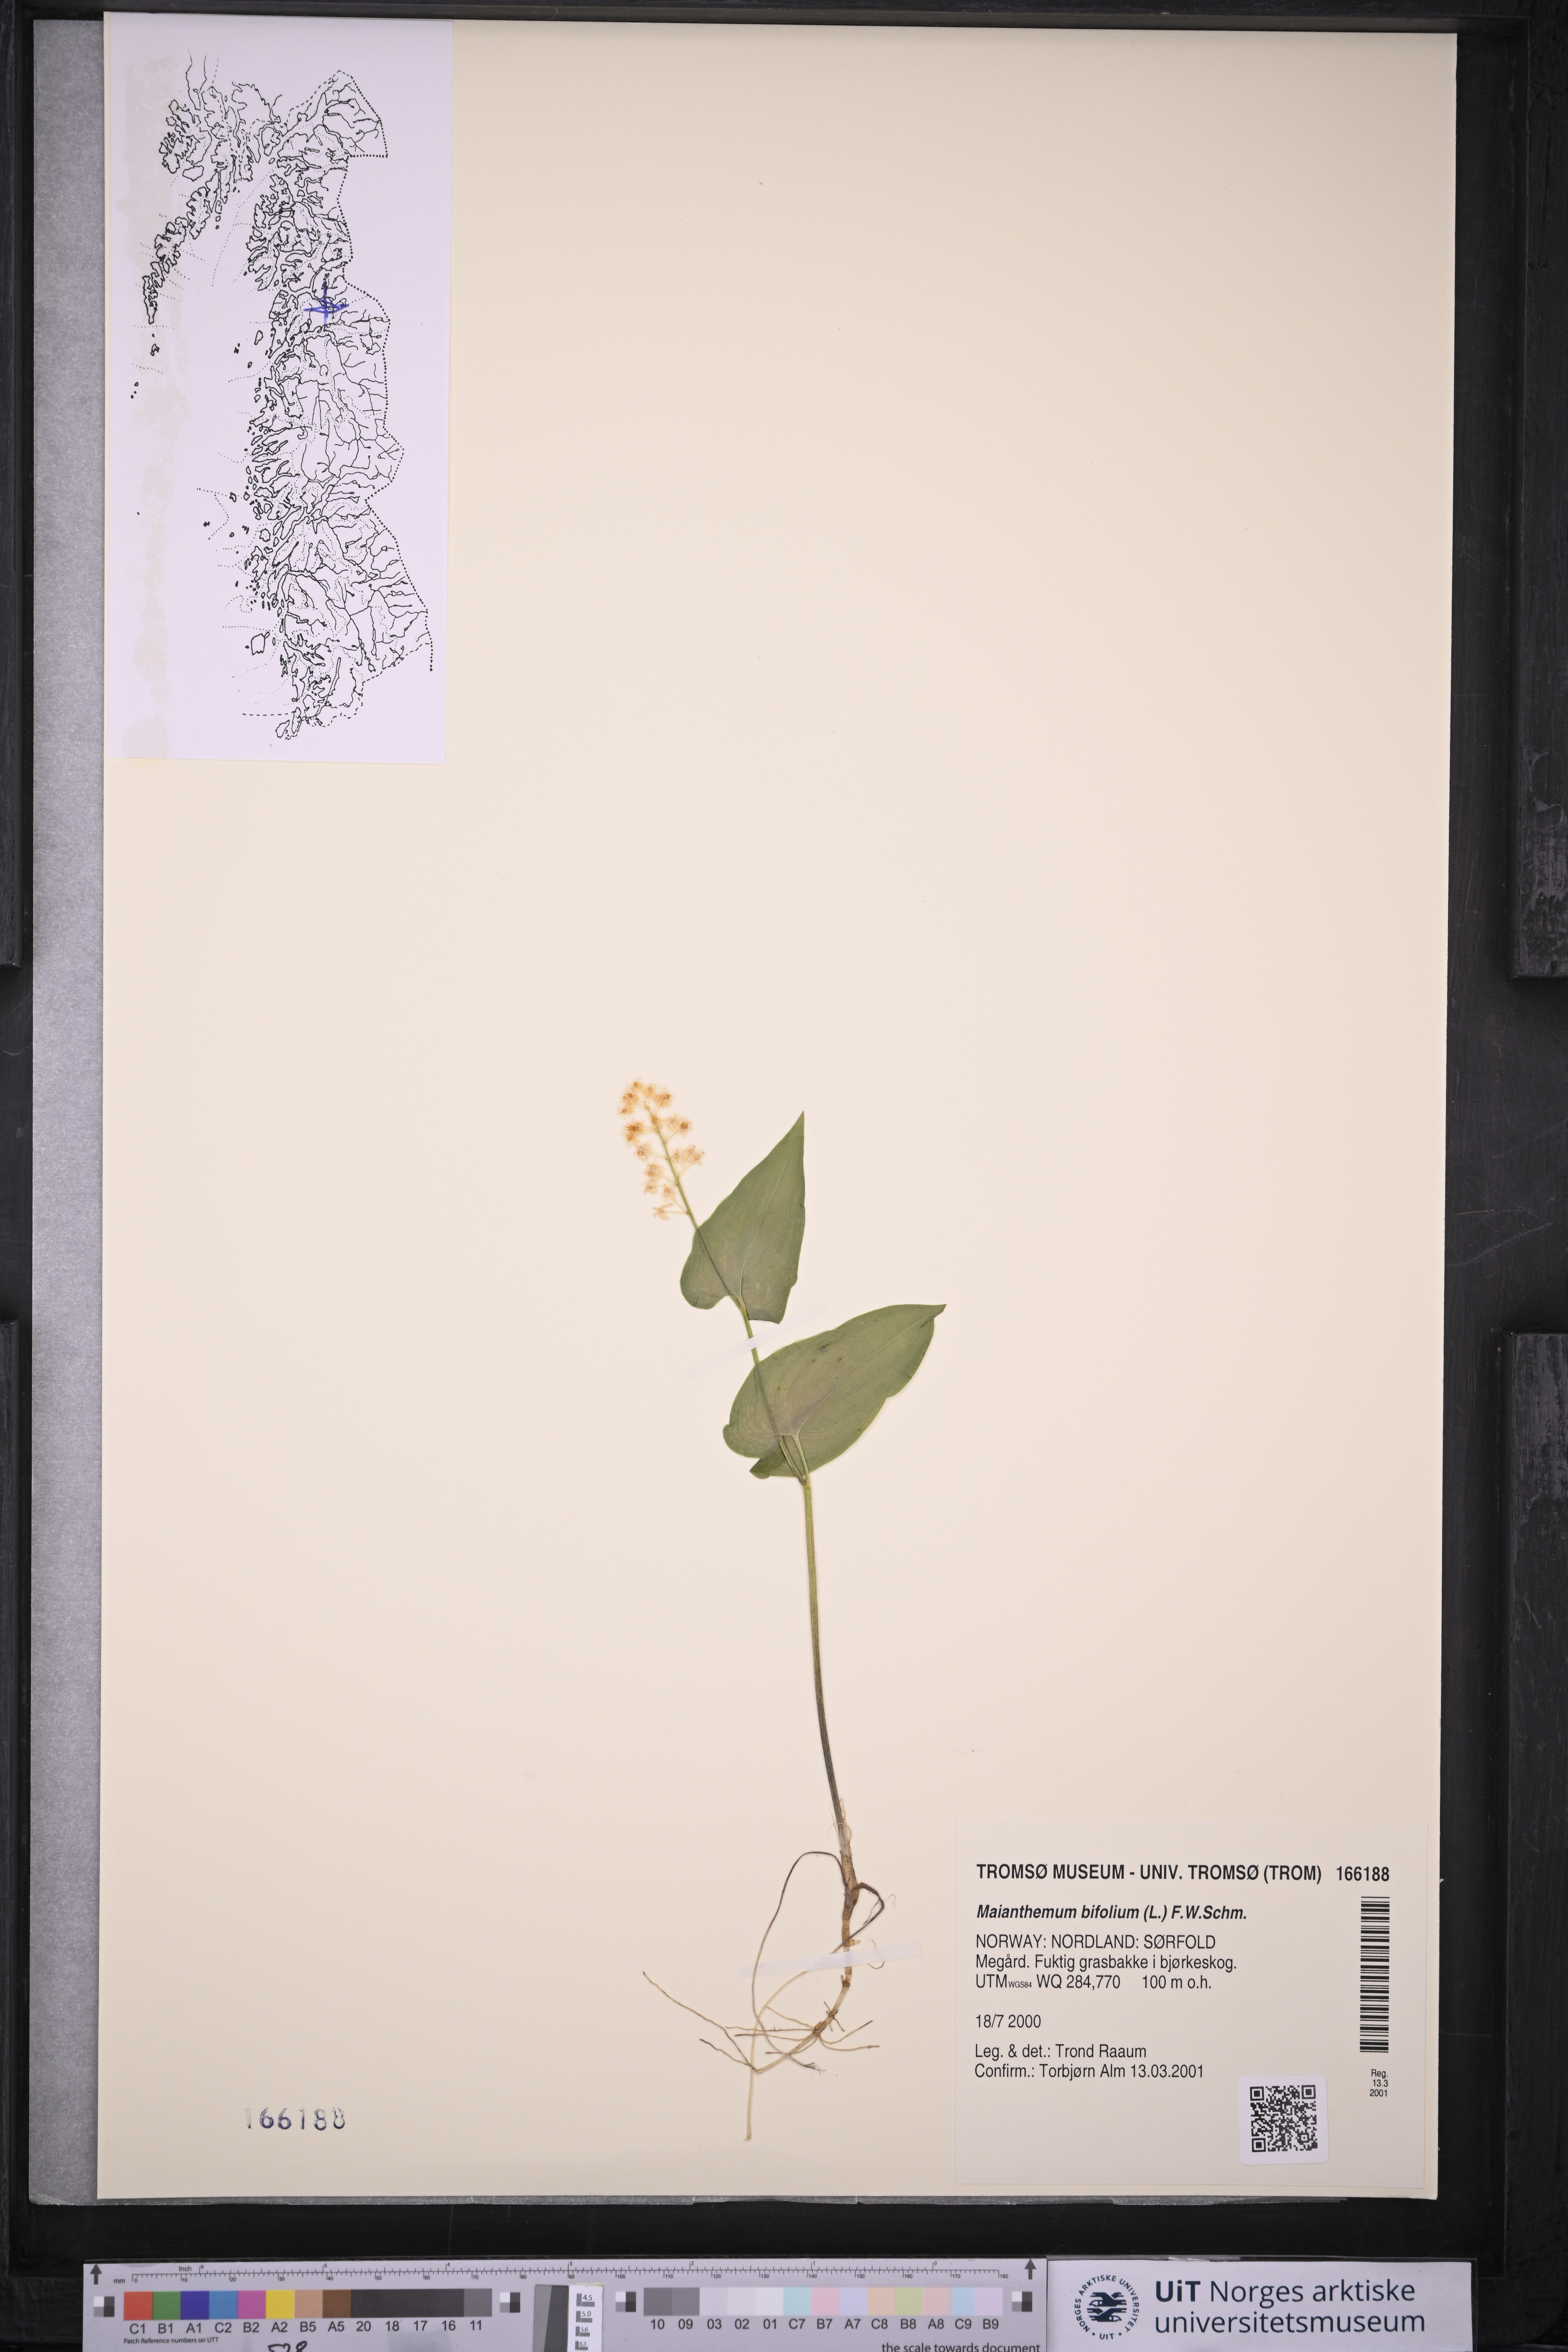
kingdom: Plantae
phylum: Tracheophyta
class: Liliopsida
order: Asparagales
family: Asparagaceae
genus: Maianthemum
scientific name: Maianthemum bifolium
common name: May lily
